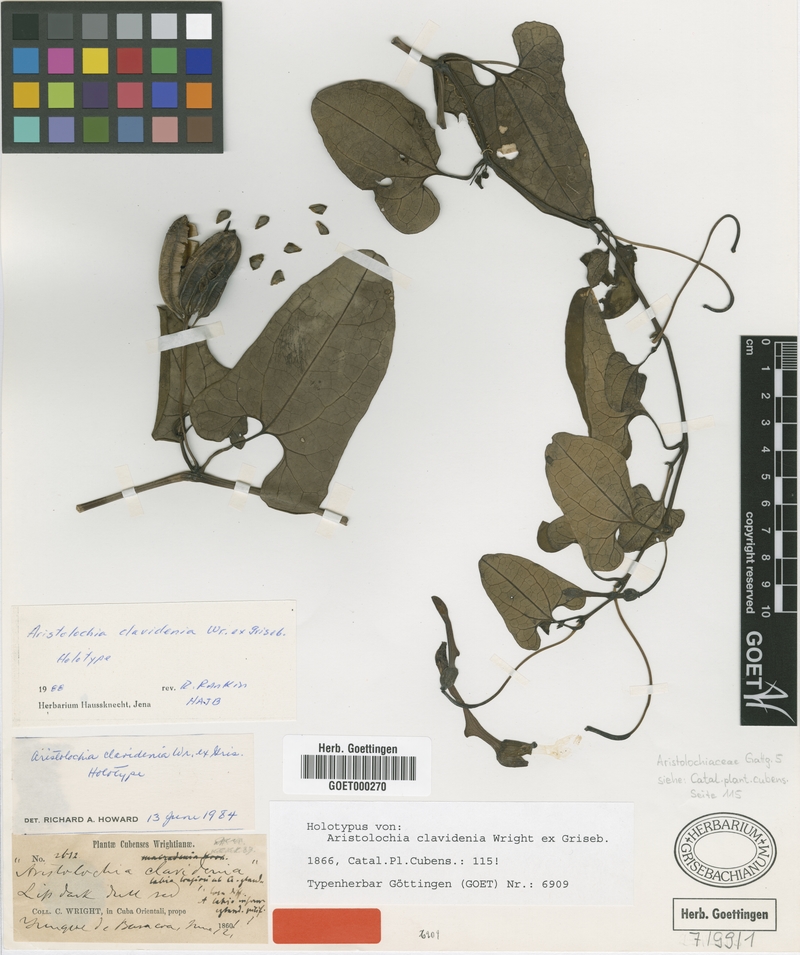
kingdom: Plantae
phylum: Tracheophyta
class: Magnoliopsida
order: Piperales
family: Aristolochiaceae
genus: Aristolochia
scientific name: Aristolochia clavidenia
